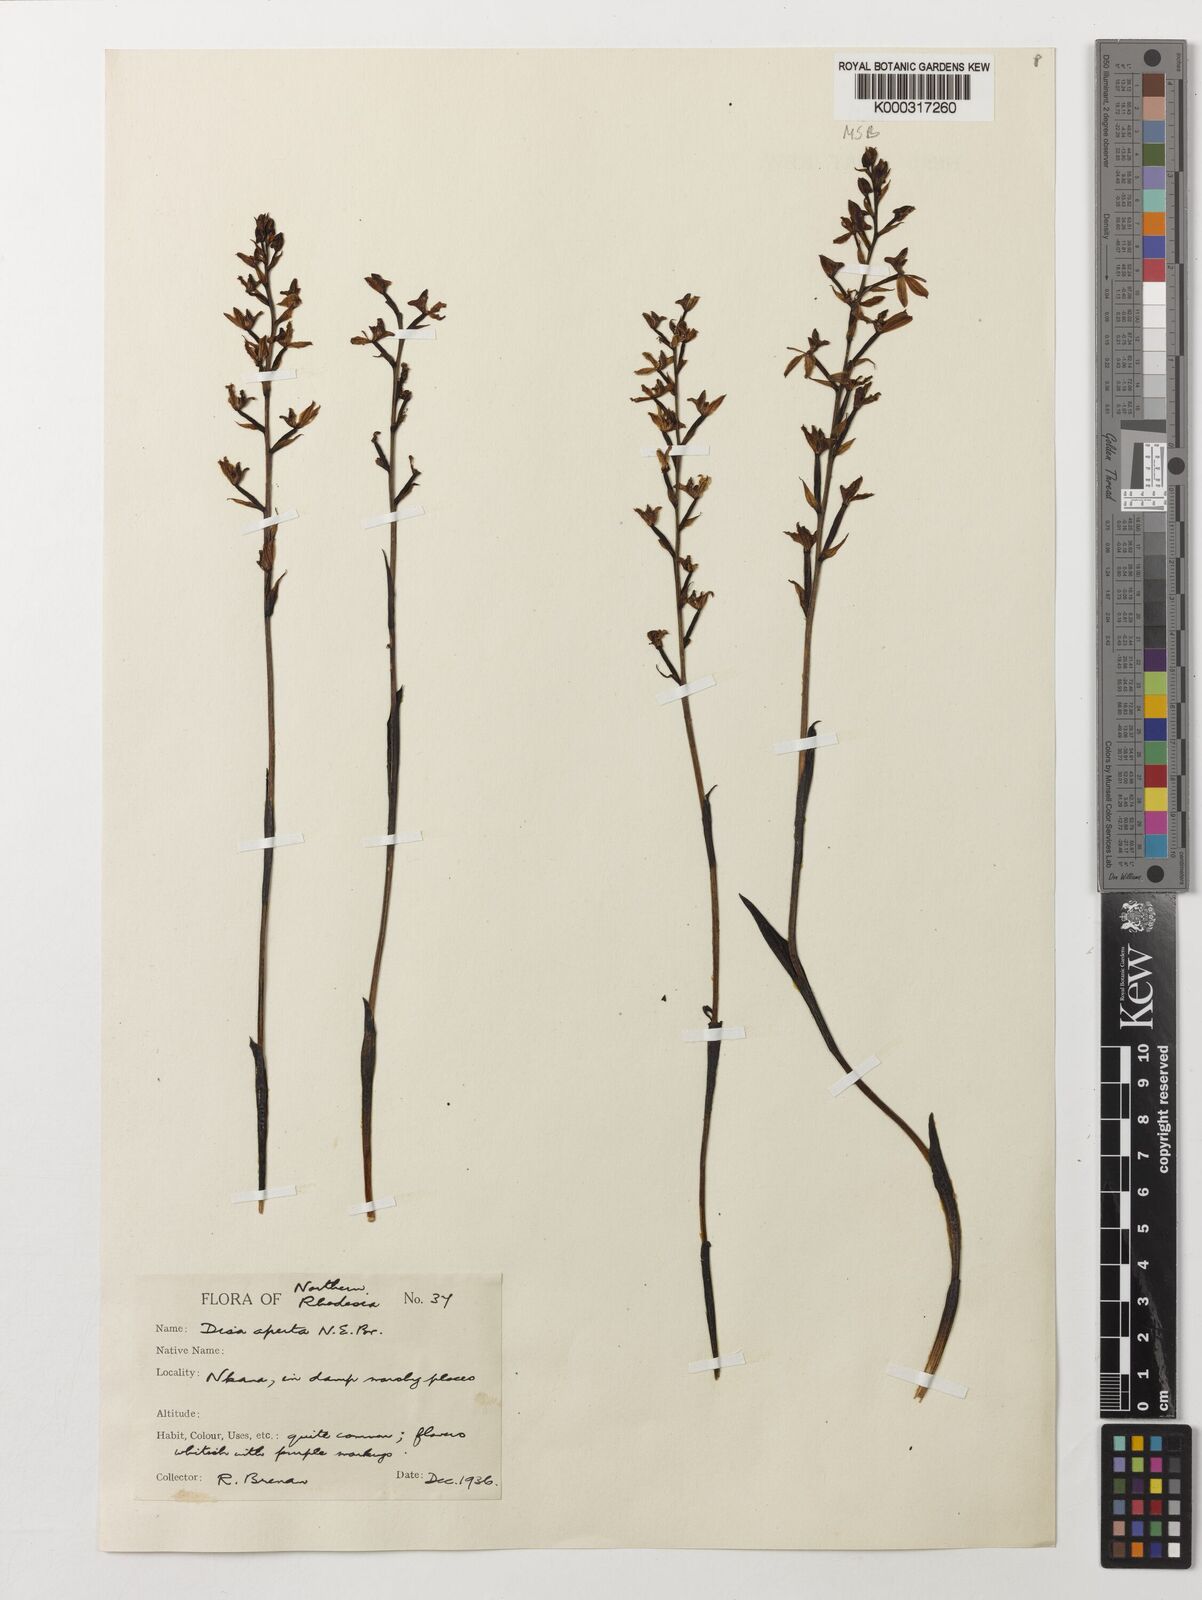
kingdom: Plantae
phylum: Tracheophyta
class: Liliopsida
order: Asparagales
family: Orchidaceae
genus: Disa
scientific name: Disa aperta
